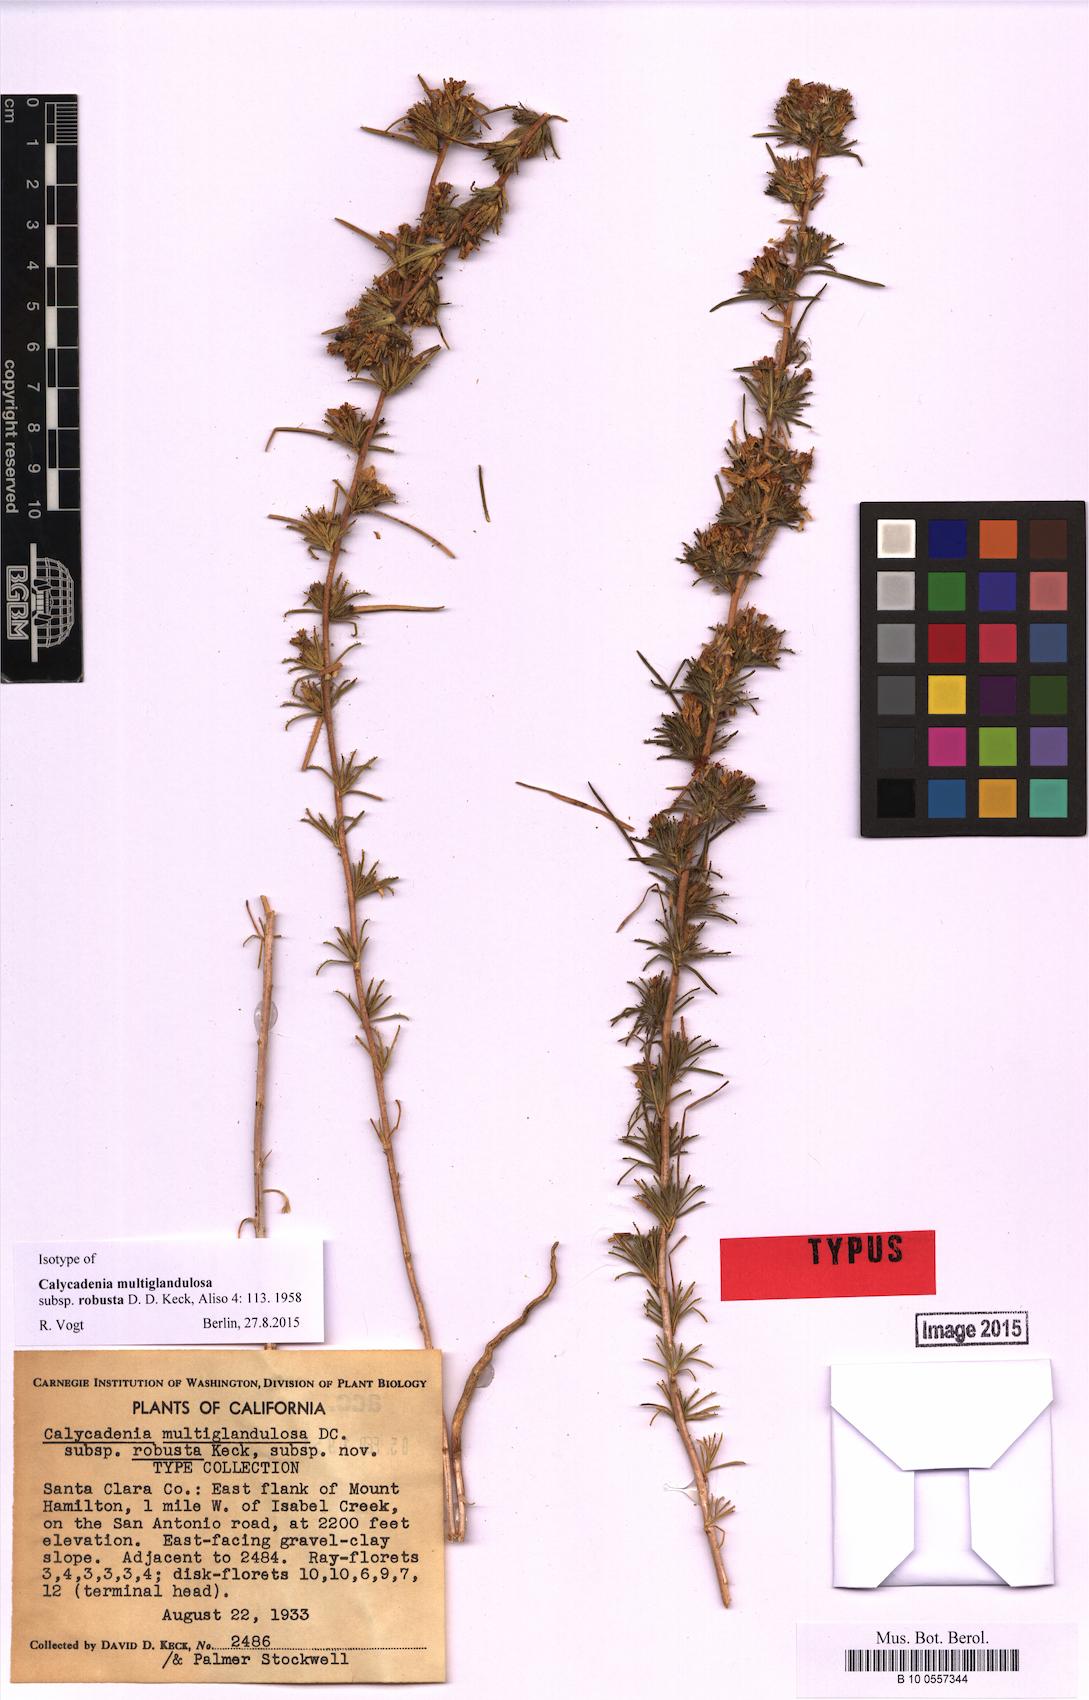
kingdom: Plantae
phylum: Tracheophyta
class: Magnoliopsida
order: Asterales
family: Asteraceae
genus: Calycadenia
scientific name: Calycadenia
